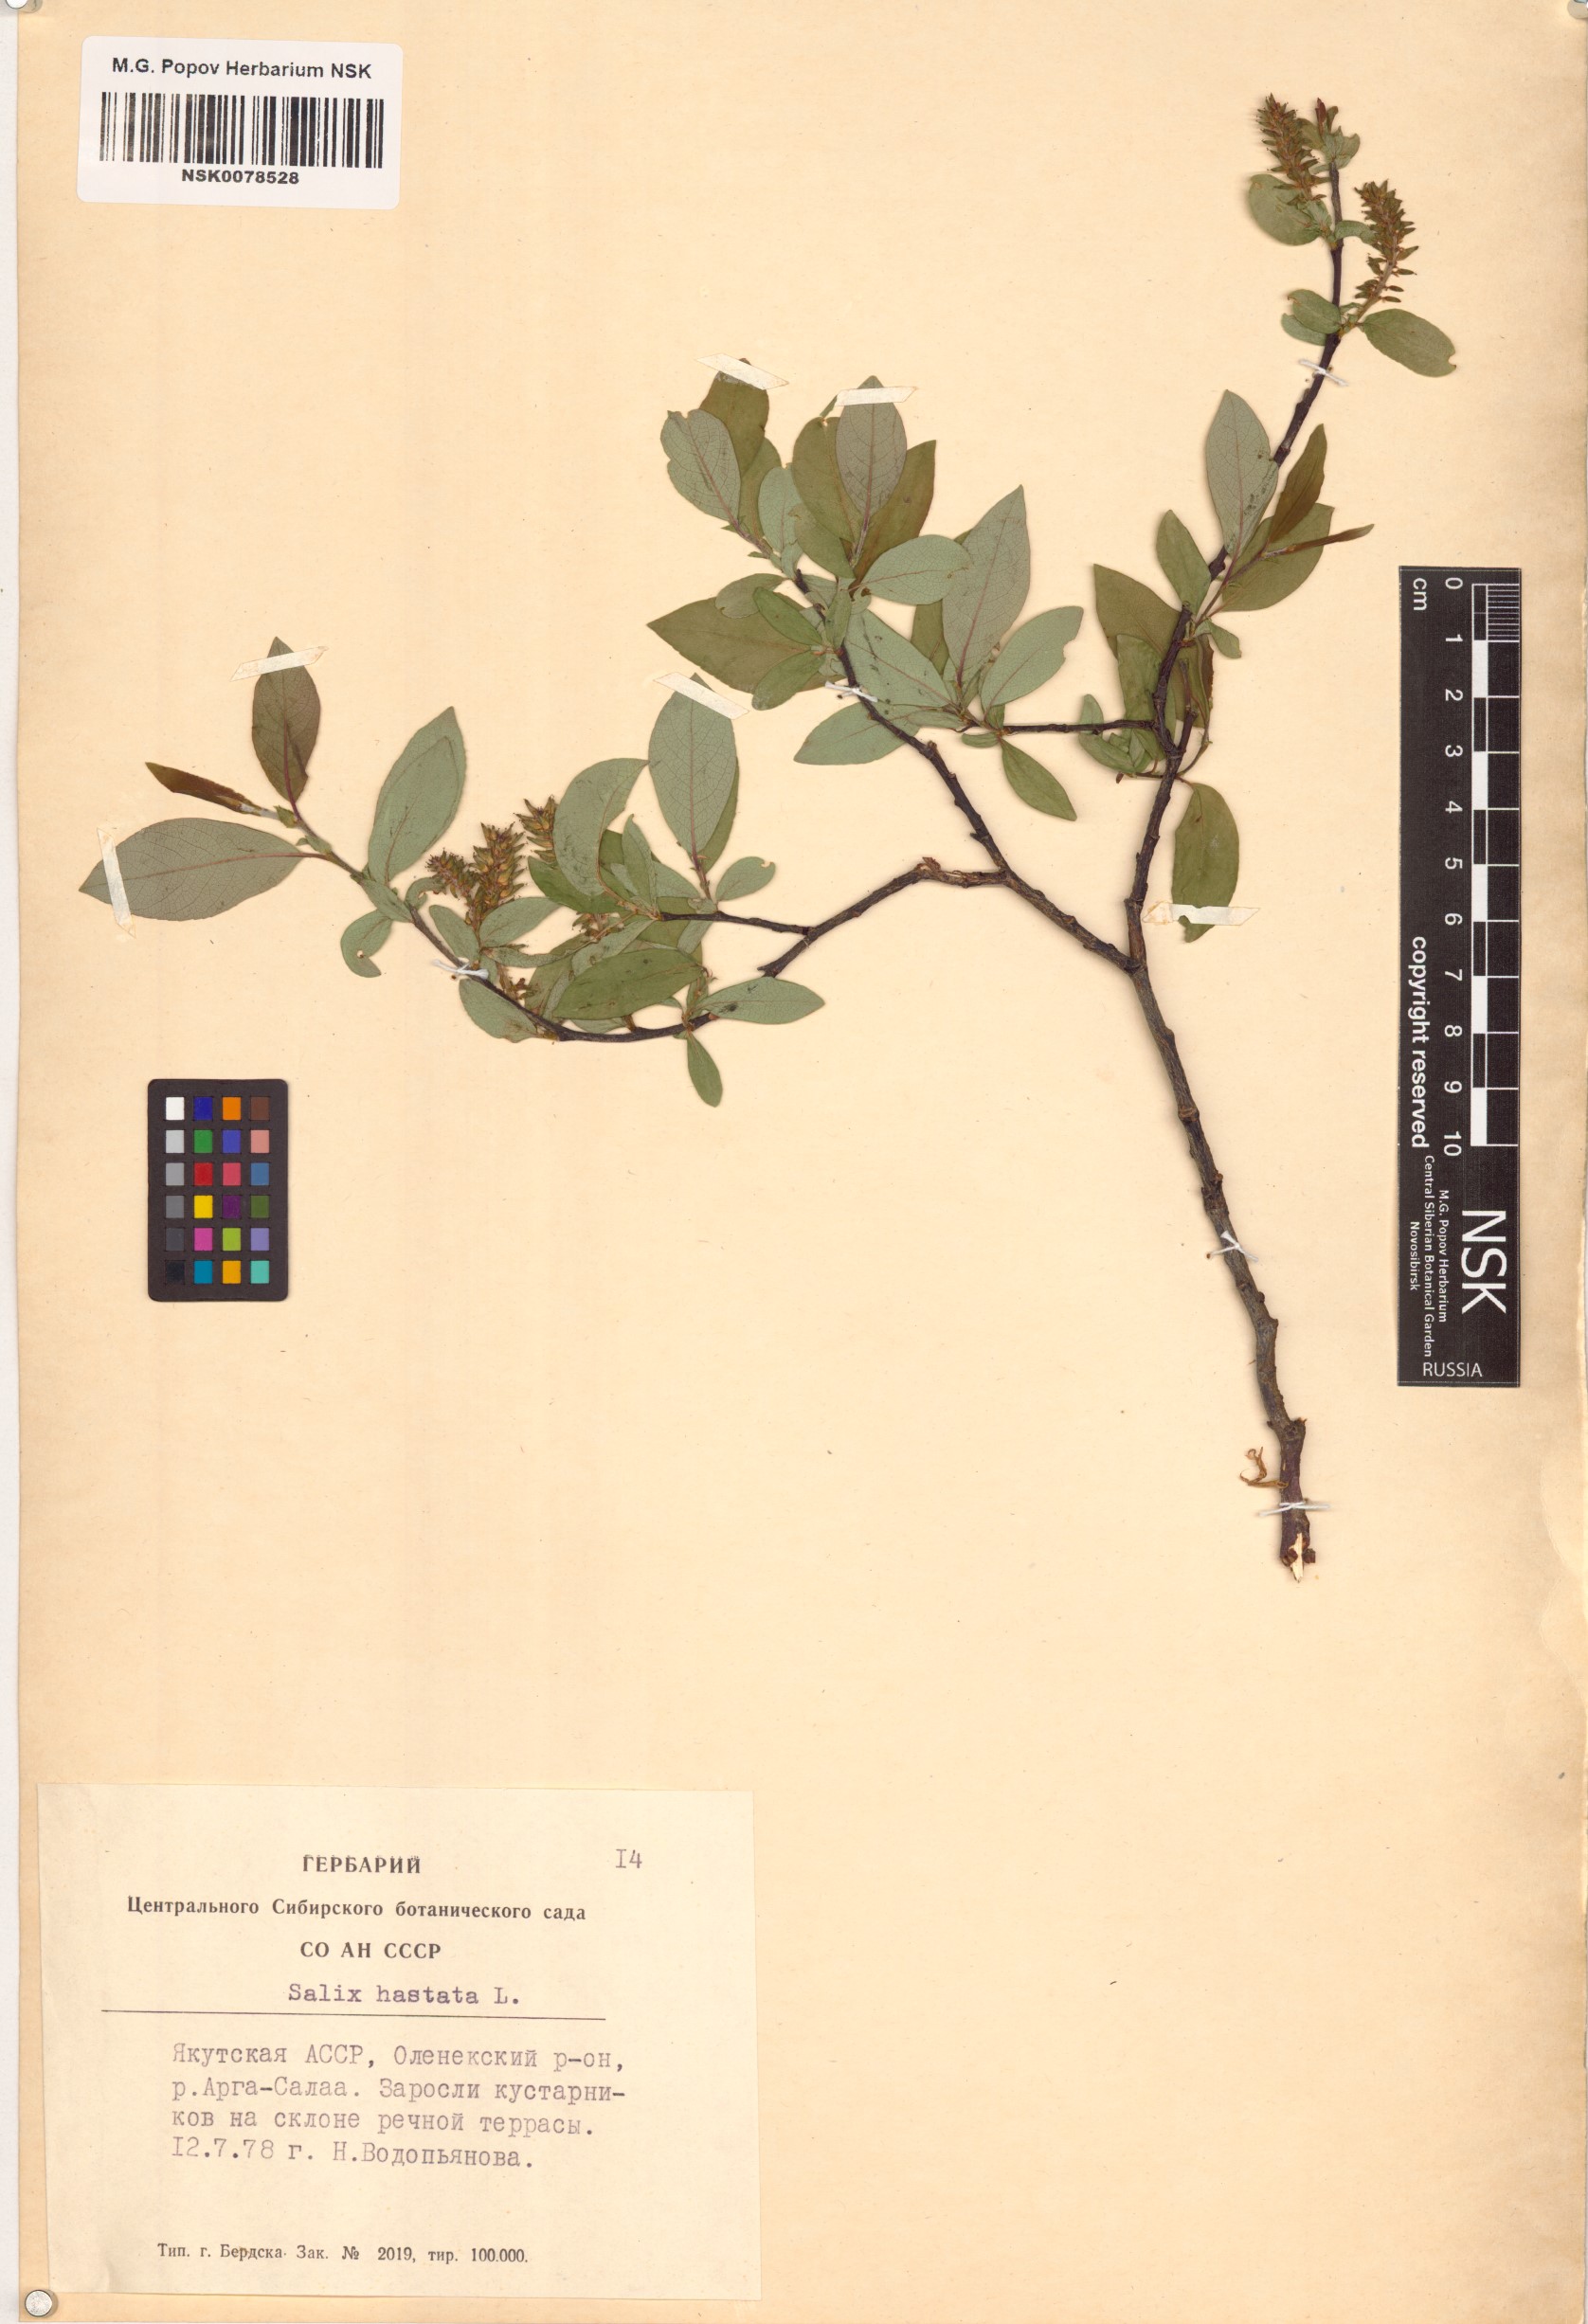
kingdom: Plantae
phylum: Tracheophyta
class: Magnoliopsida
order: Malpighiales
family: Salicaceae
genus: Salix
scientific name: Salix hastata
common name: Halberd willow
